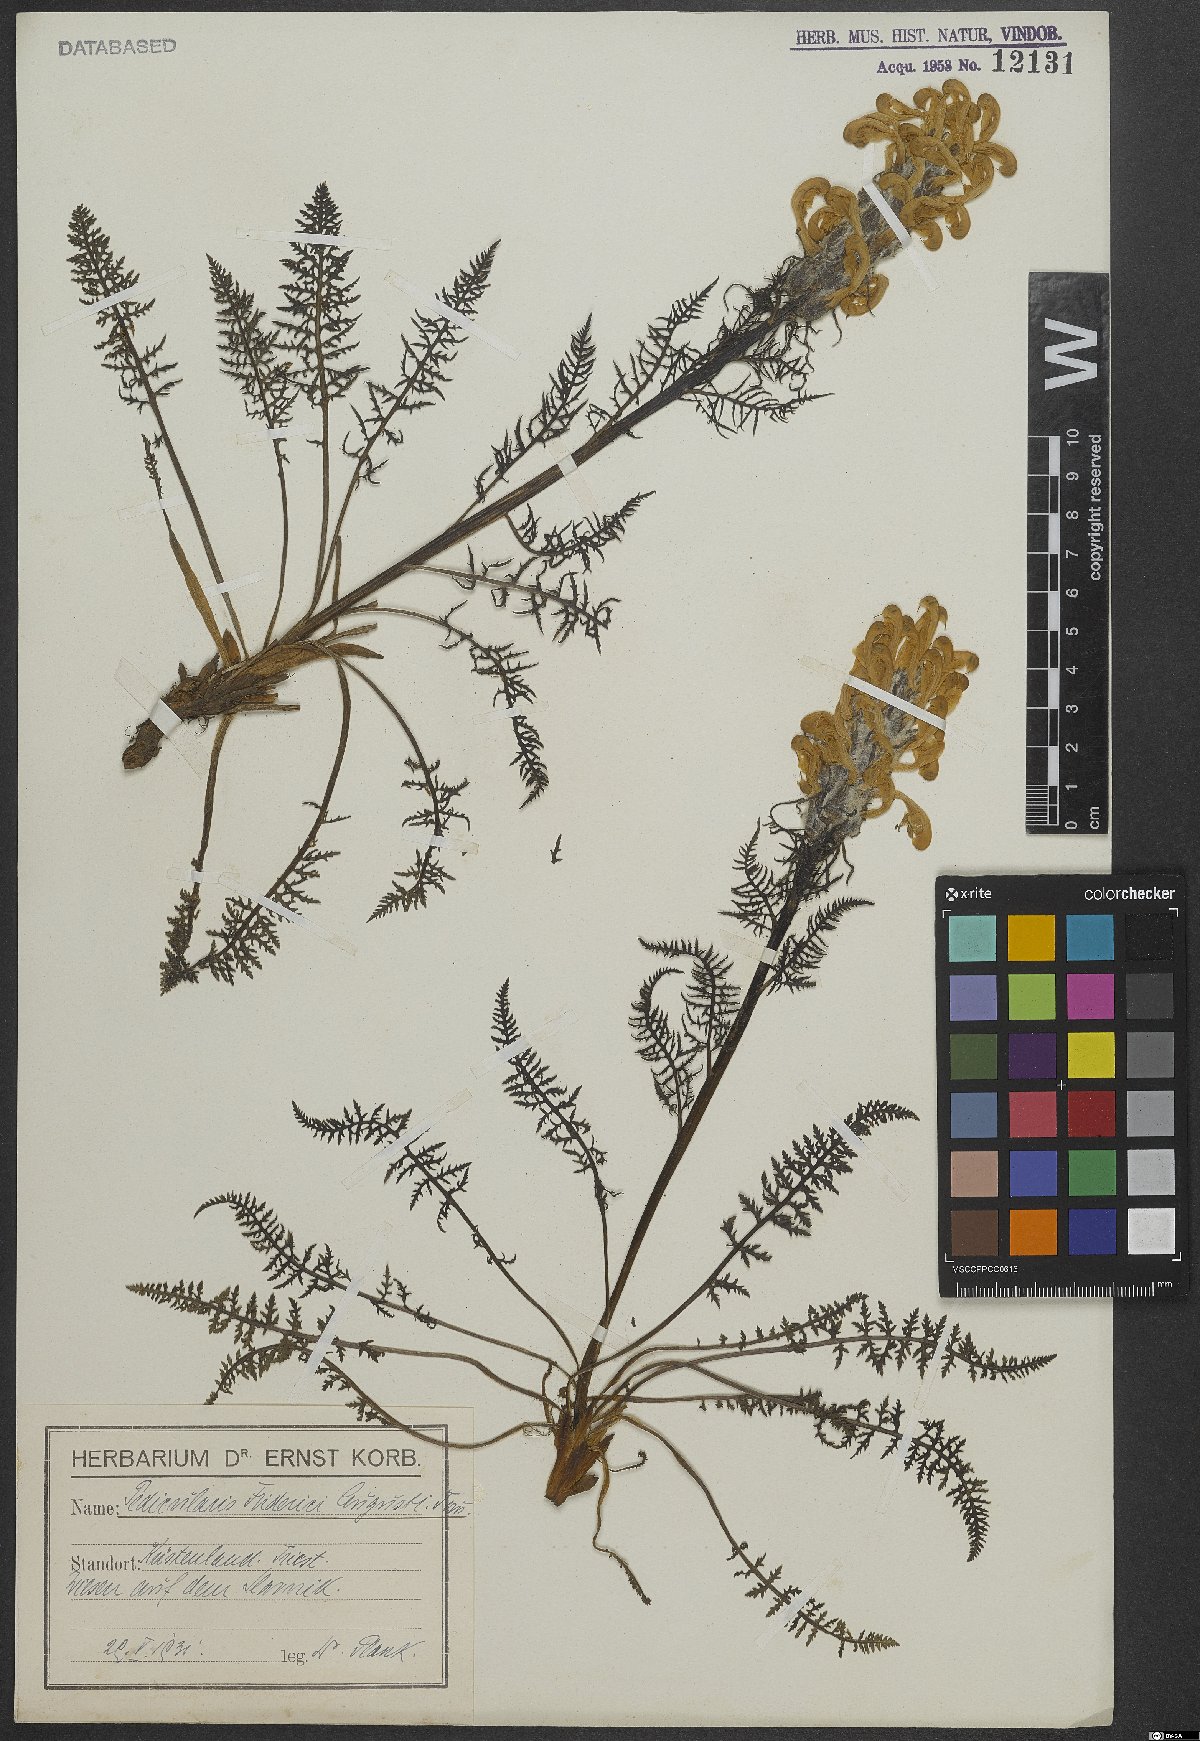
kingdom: Plantae
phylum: Tracheophyta
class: Magnoliopsida
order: Lamiales
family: Orobanchaceae
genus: Pedicularis
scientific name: Pedicularis friderici-augusti
